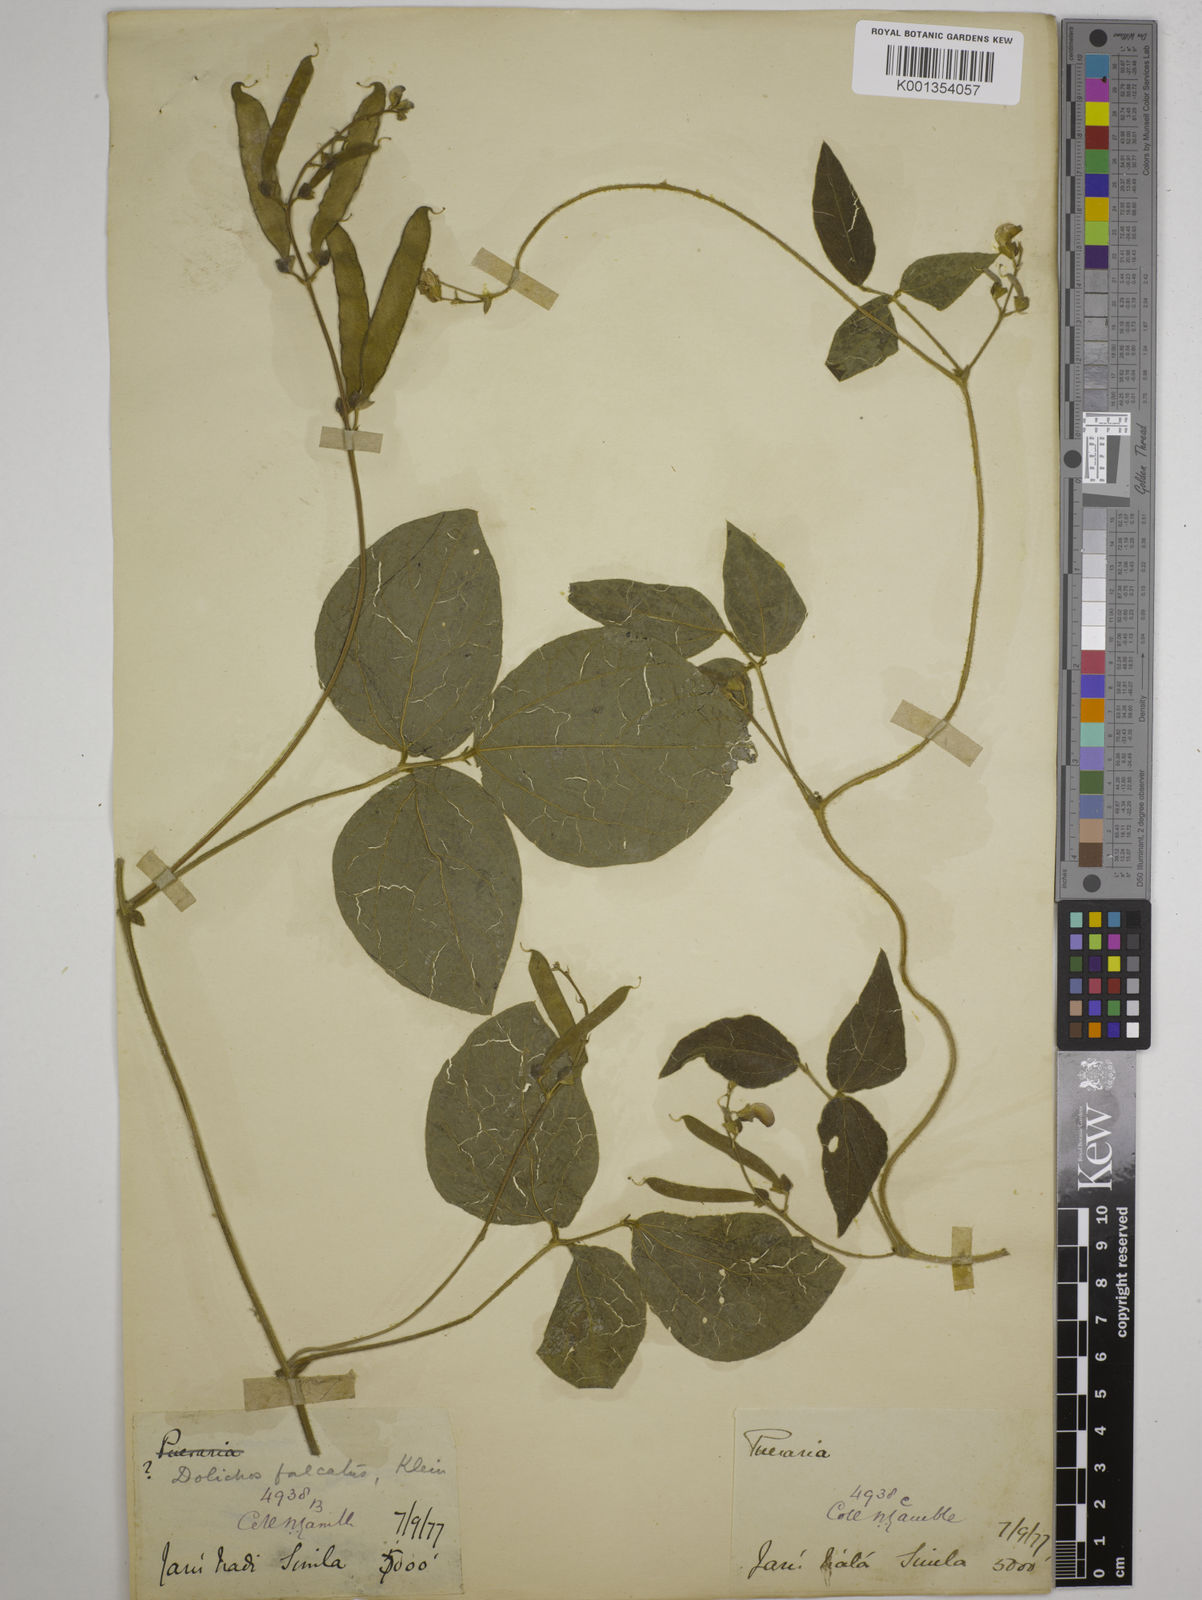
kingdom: Plantae
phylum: Tracheophyta
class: Magnoliopsida
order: Fabales
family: Fabaceae
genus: Dolichos
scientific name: Dolichos
